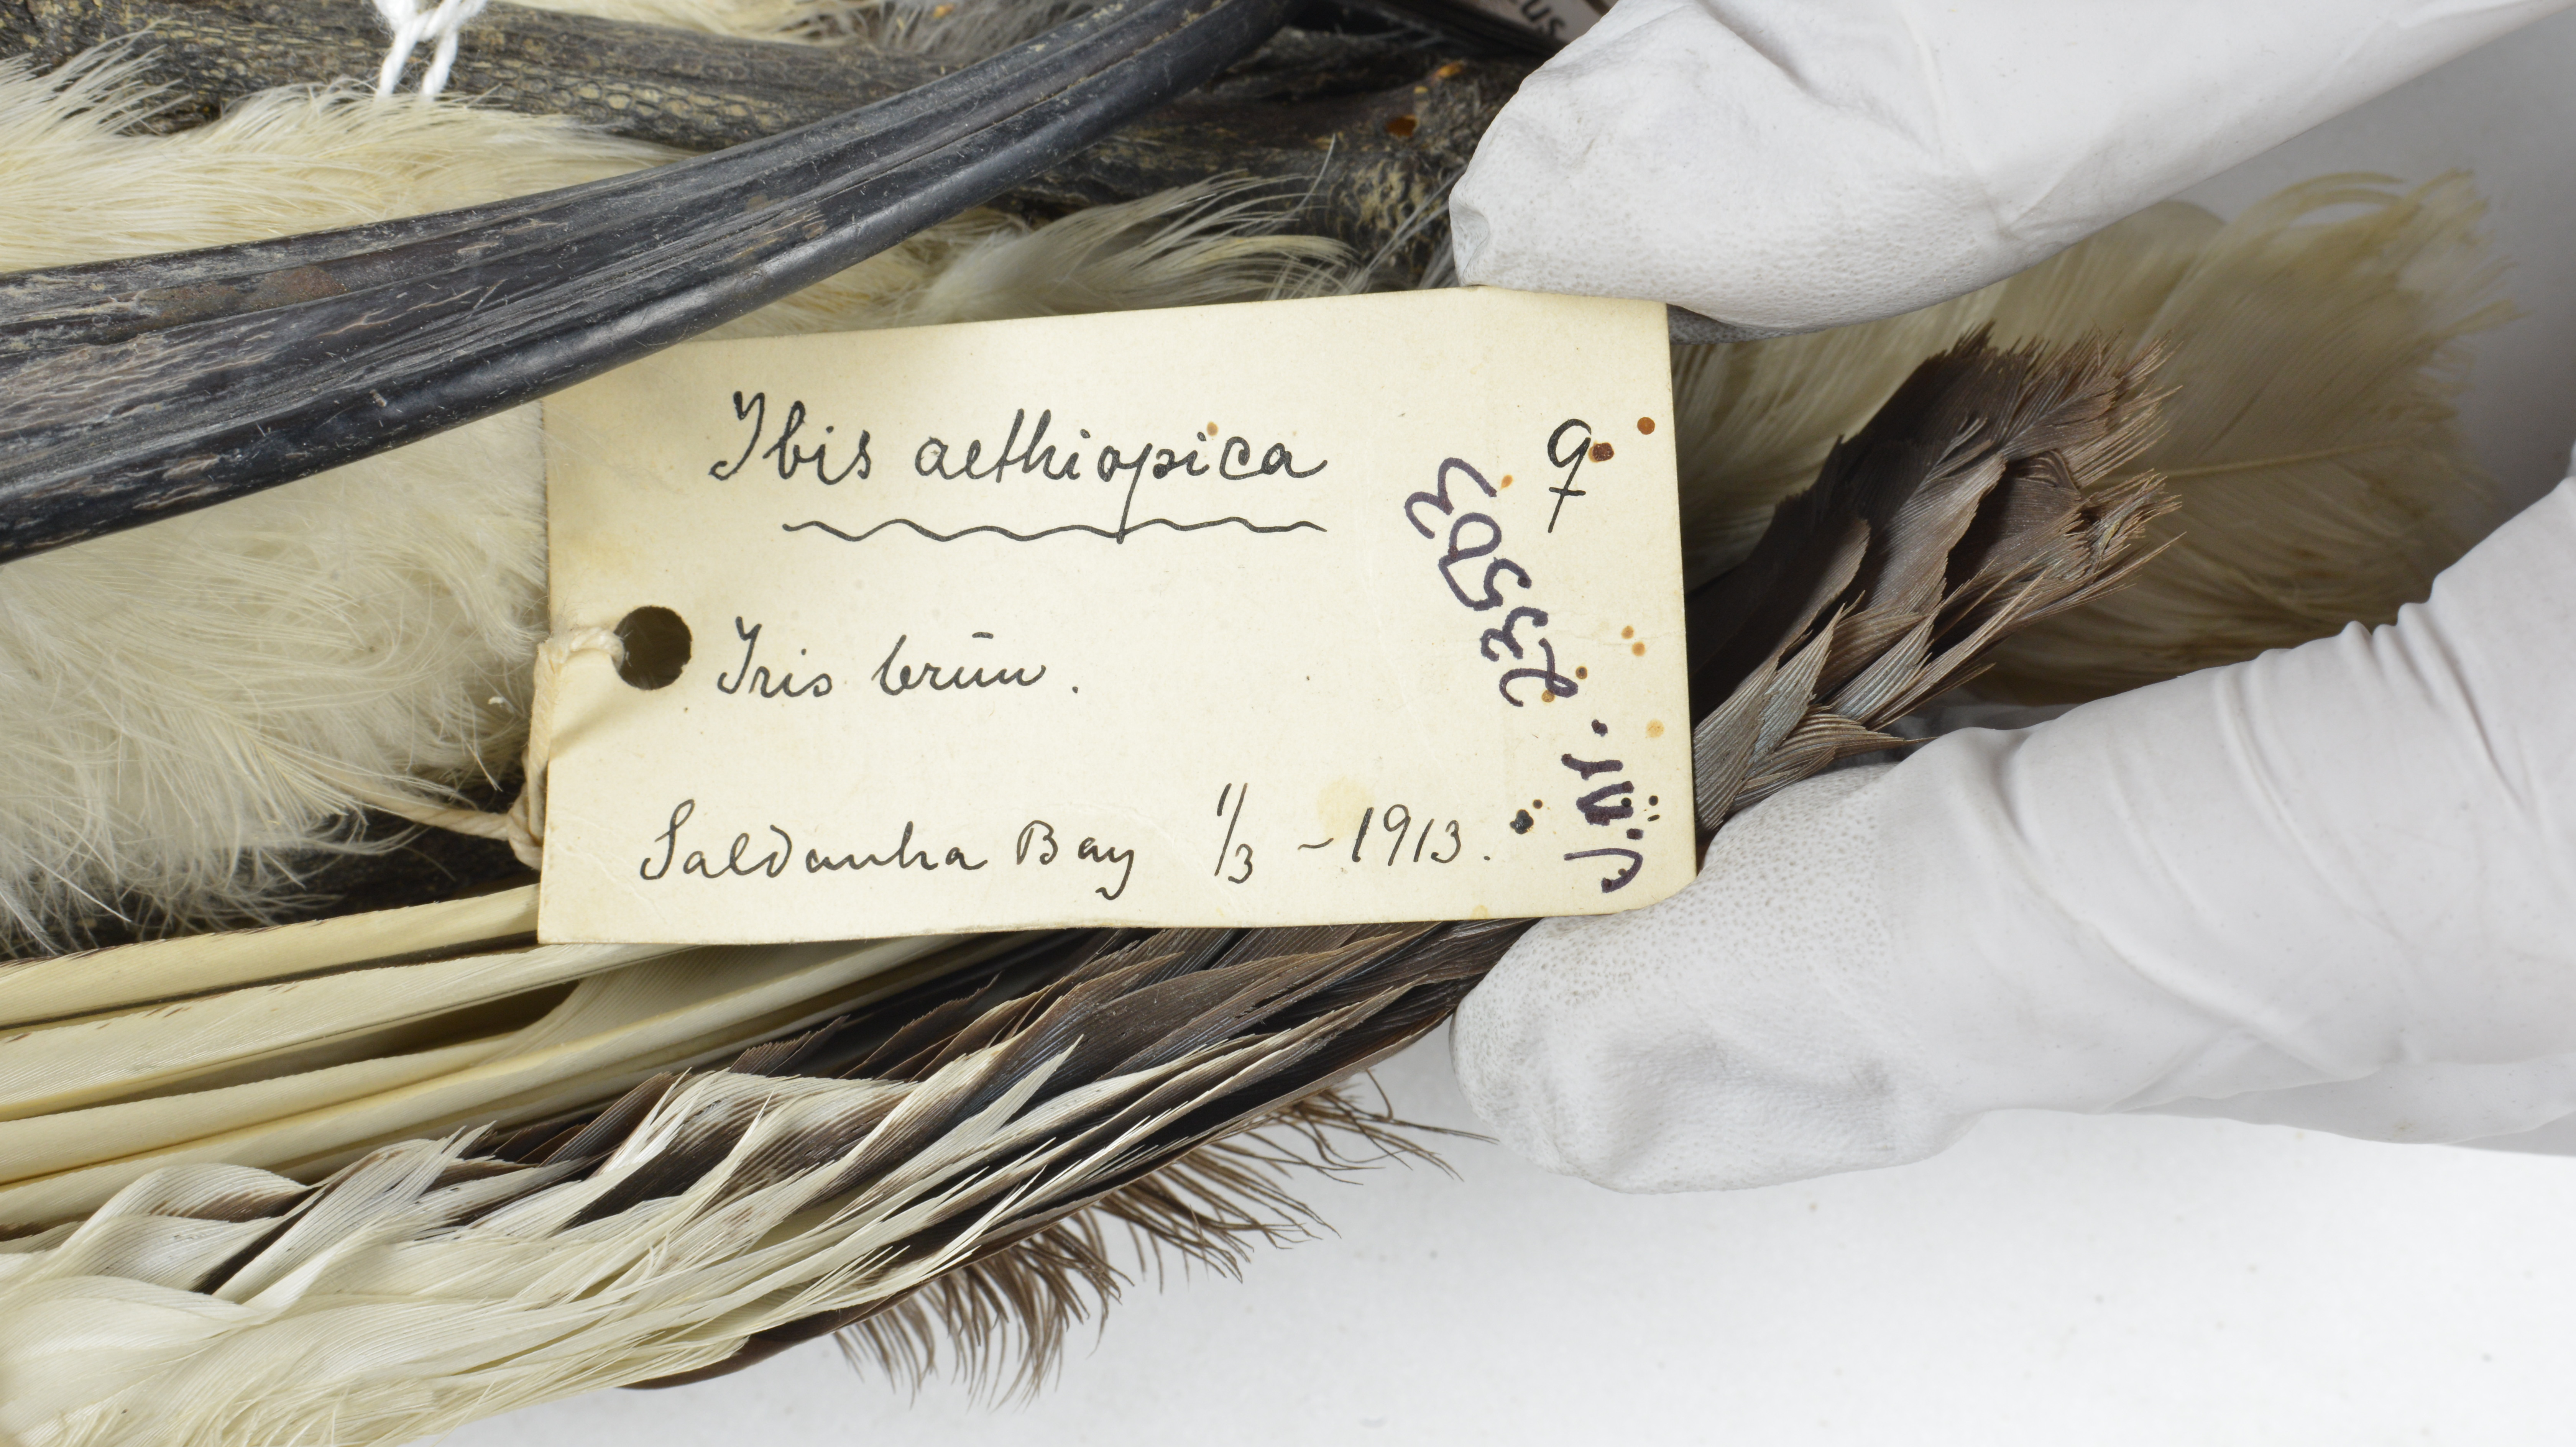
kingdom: Animalia
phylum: Chordata
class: Aves
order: Pelecaniformes
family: Threskiornithidae
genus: Threskiornis
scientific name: Threskiornis aethiopicus
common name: Sacred ibis
